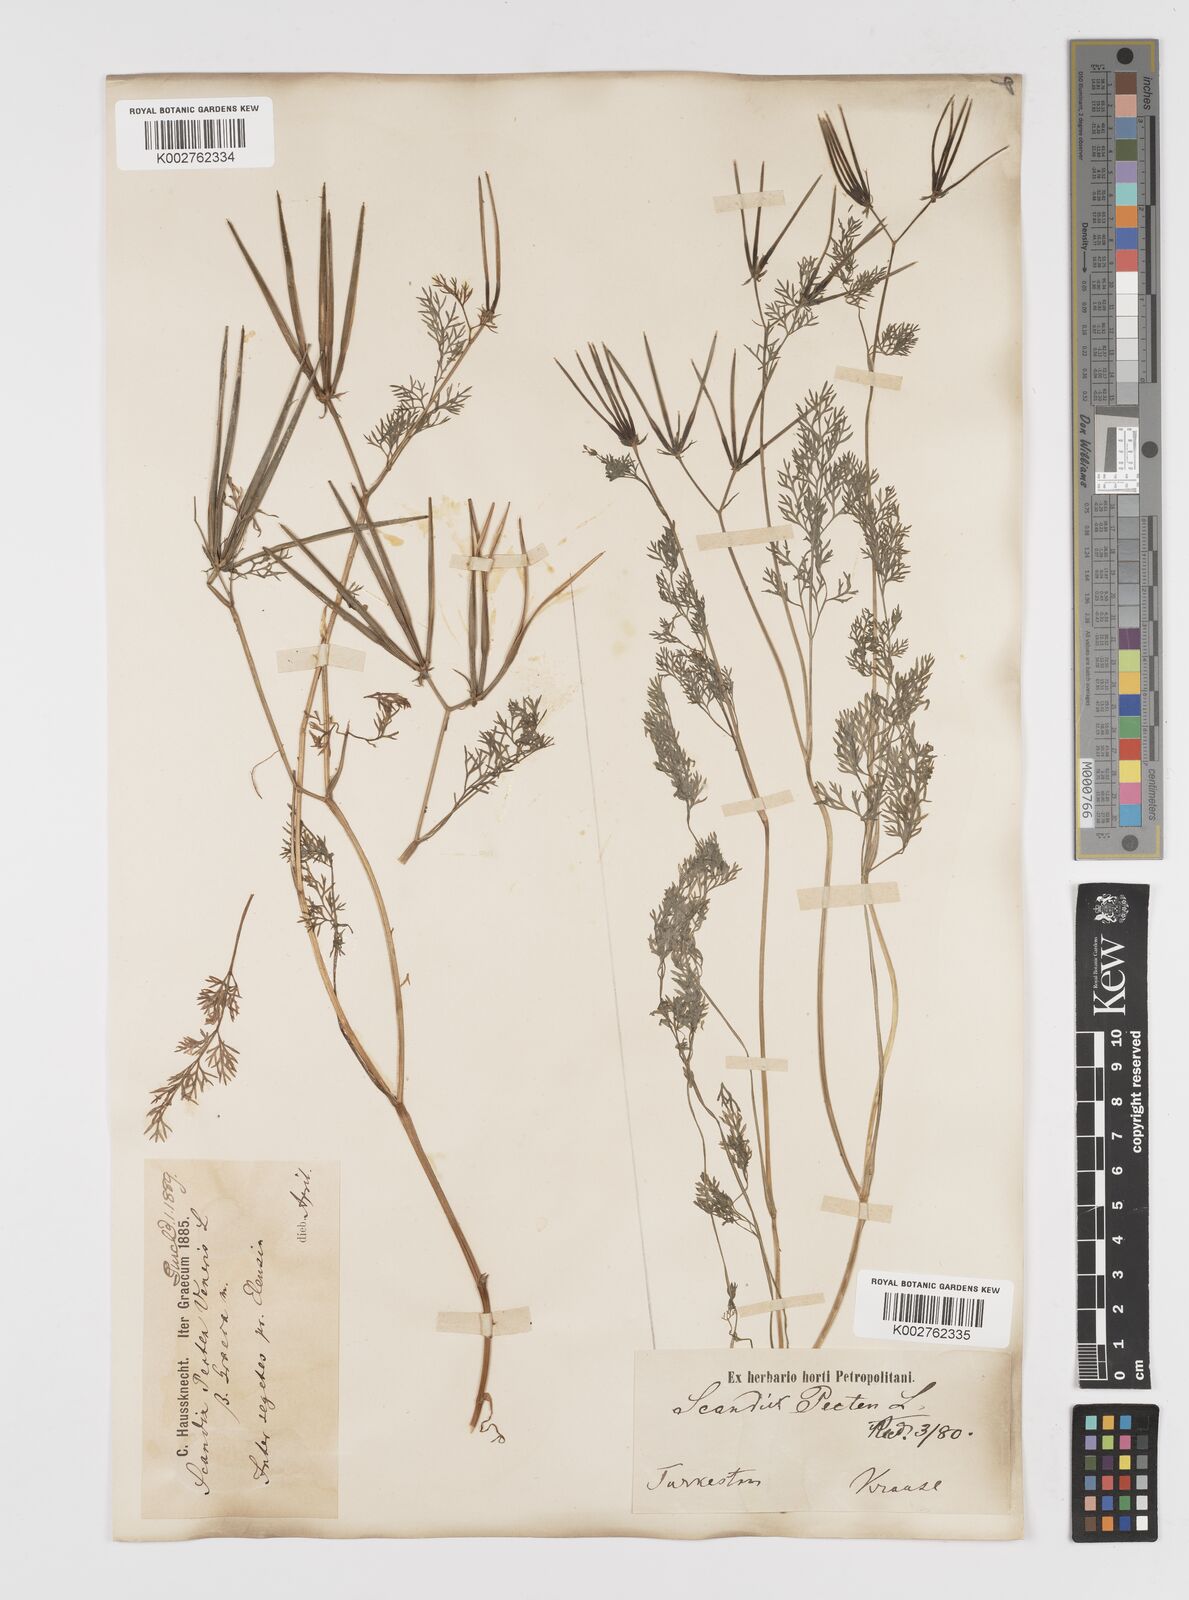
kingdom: Plantae
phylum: Tracheophyta
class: Magnoliopsida
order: Apiales
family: Apiaceae
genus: Scandix
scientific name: Scandix pecten-veneris
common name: Shepherd's-needle
